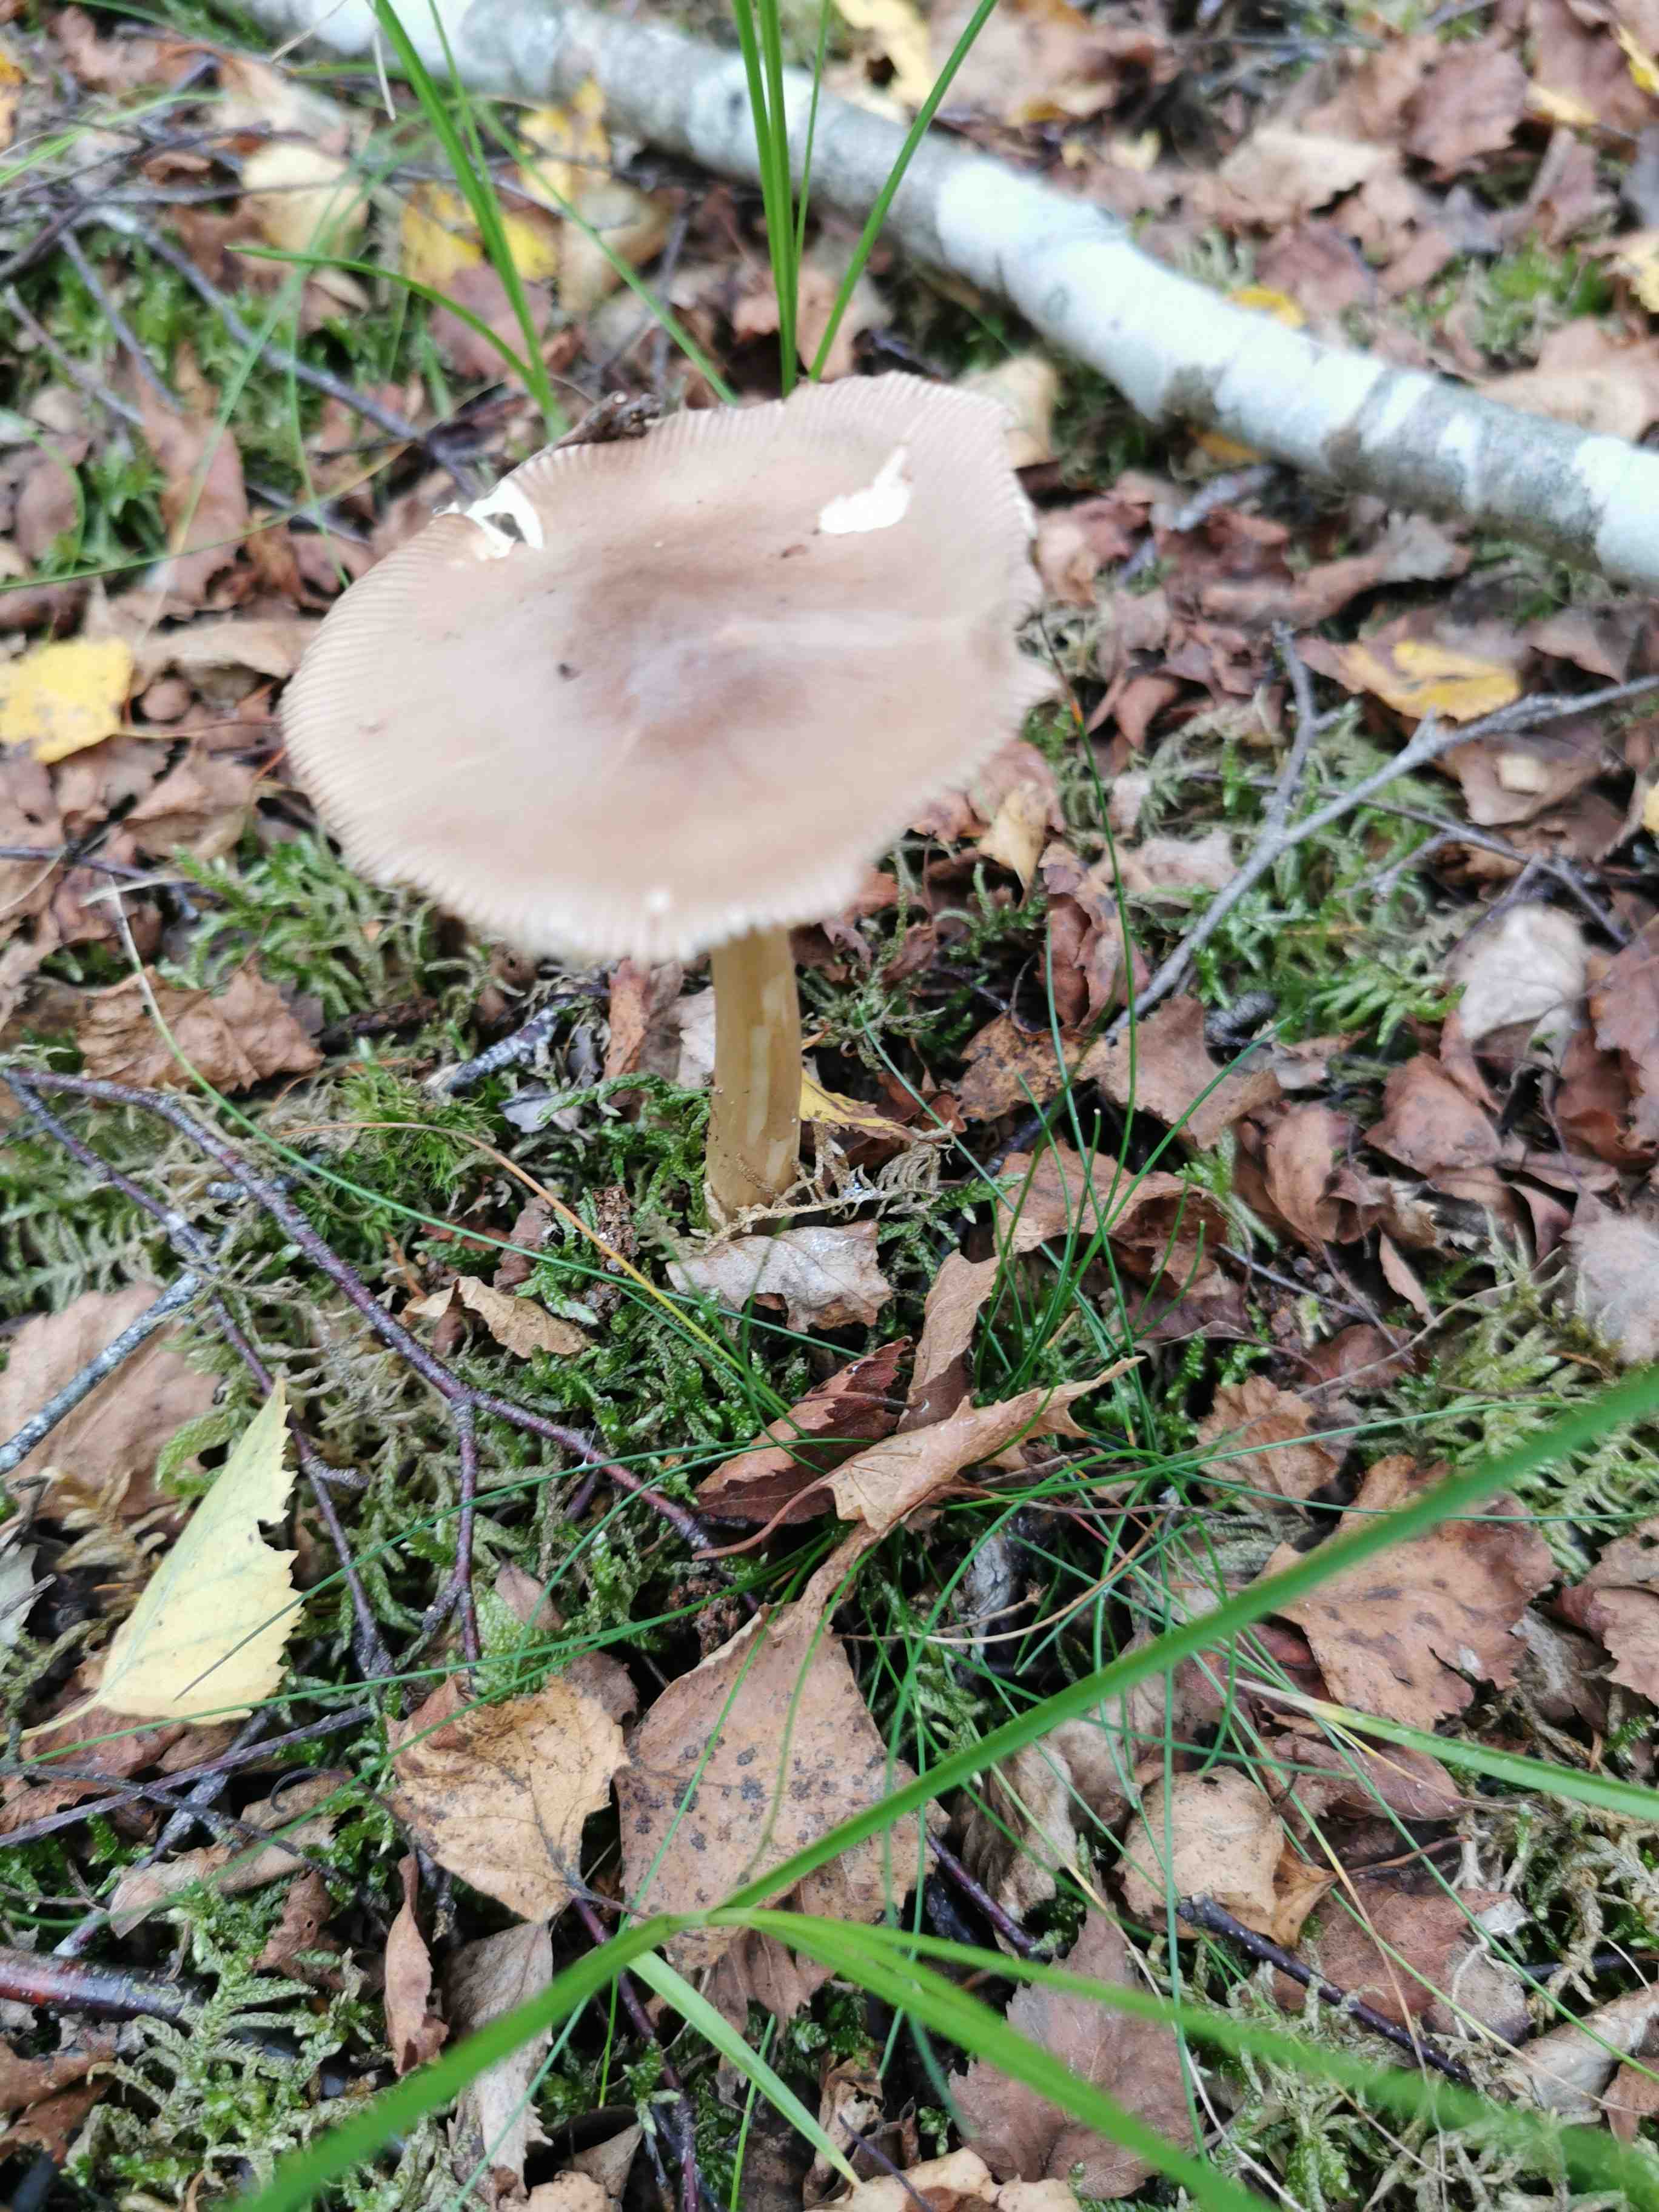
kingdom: Fungi
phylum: Basidiomycota
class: Agaricomycetes
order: Agaricales
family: Amanitaceae
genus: Amanita
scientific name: Amanita fulva
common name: brun kam-fluesvamp
